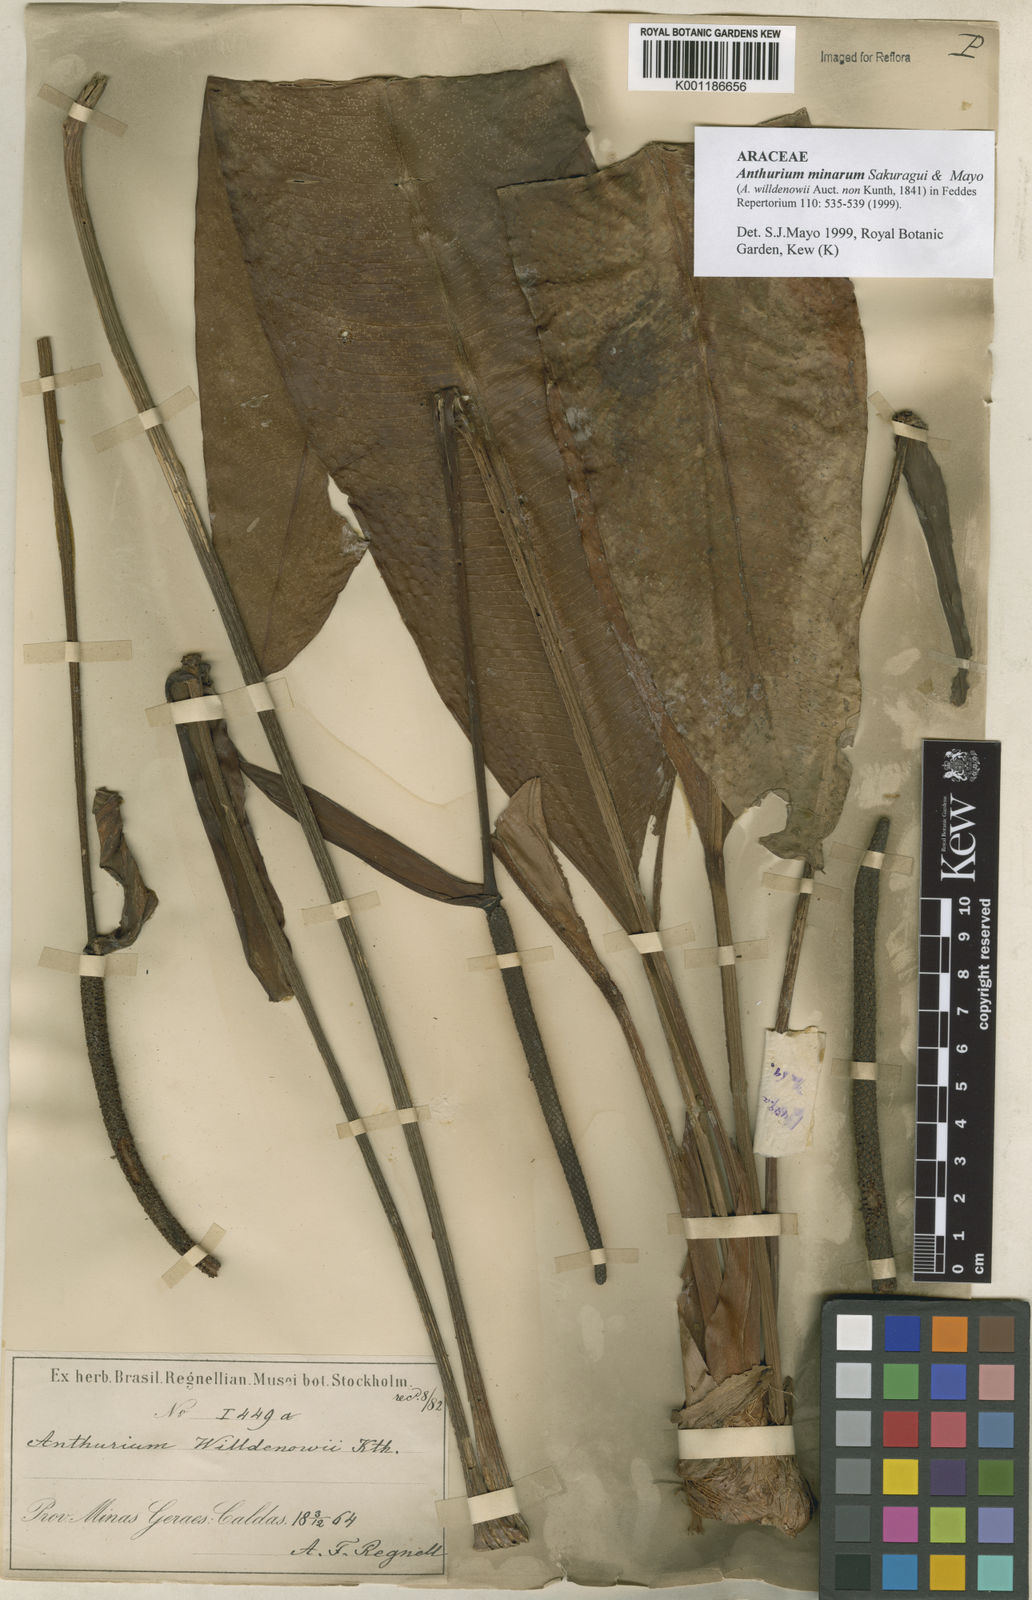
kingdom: Plantae
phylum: Tracheophyta
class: Liliopsida
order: Alismatales
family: Araceae
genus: Anthurium
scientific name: Anthurium minarum
